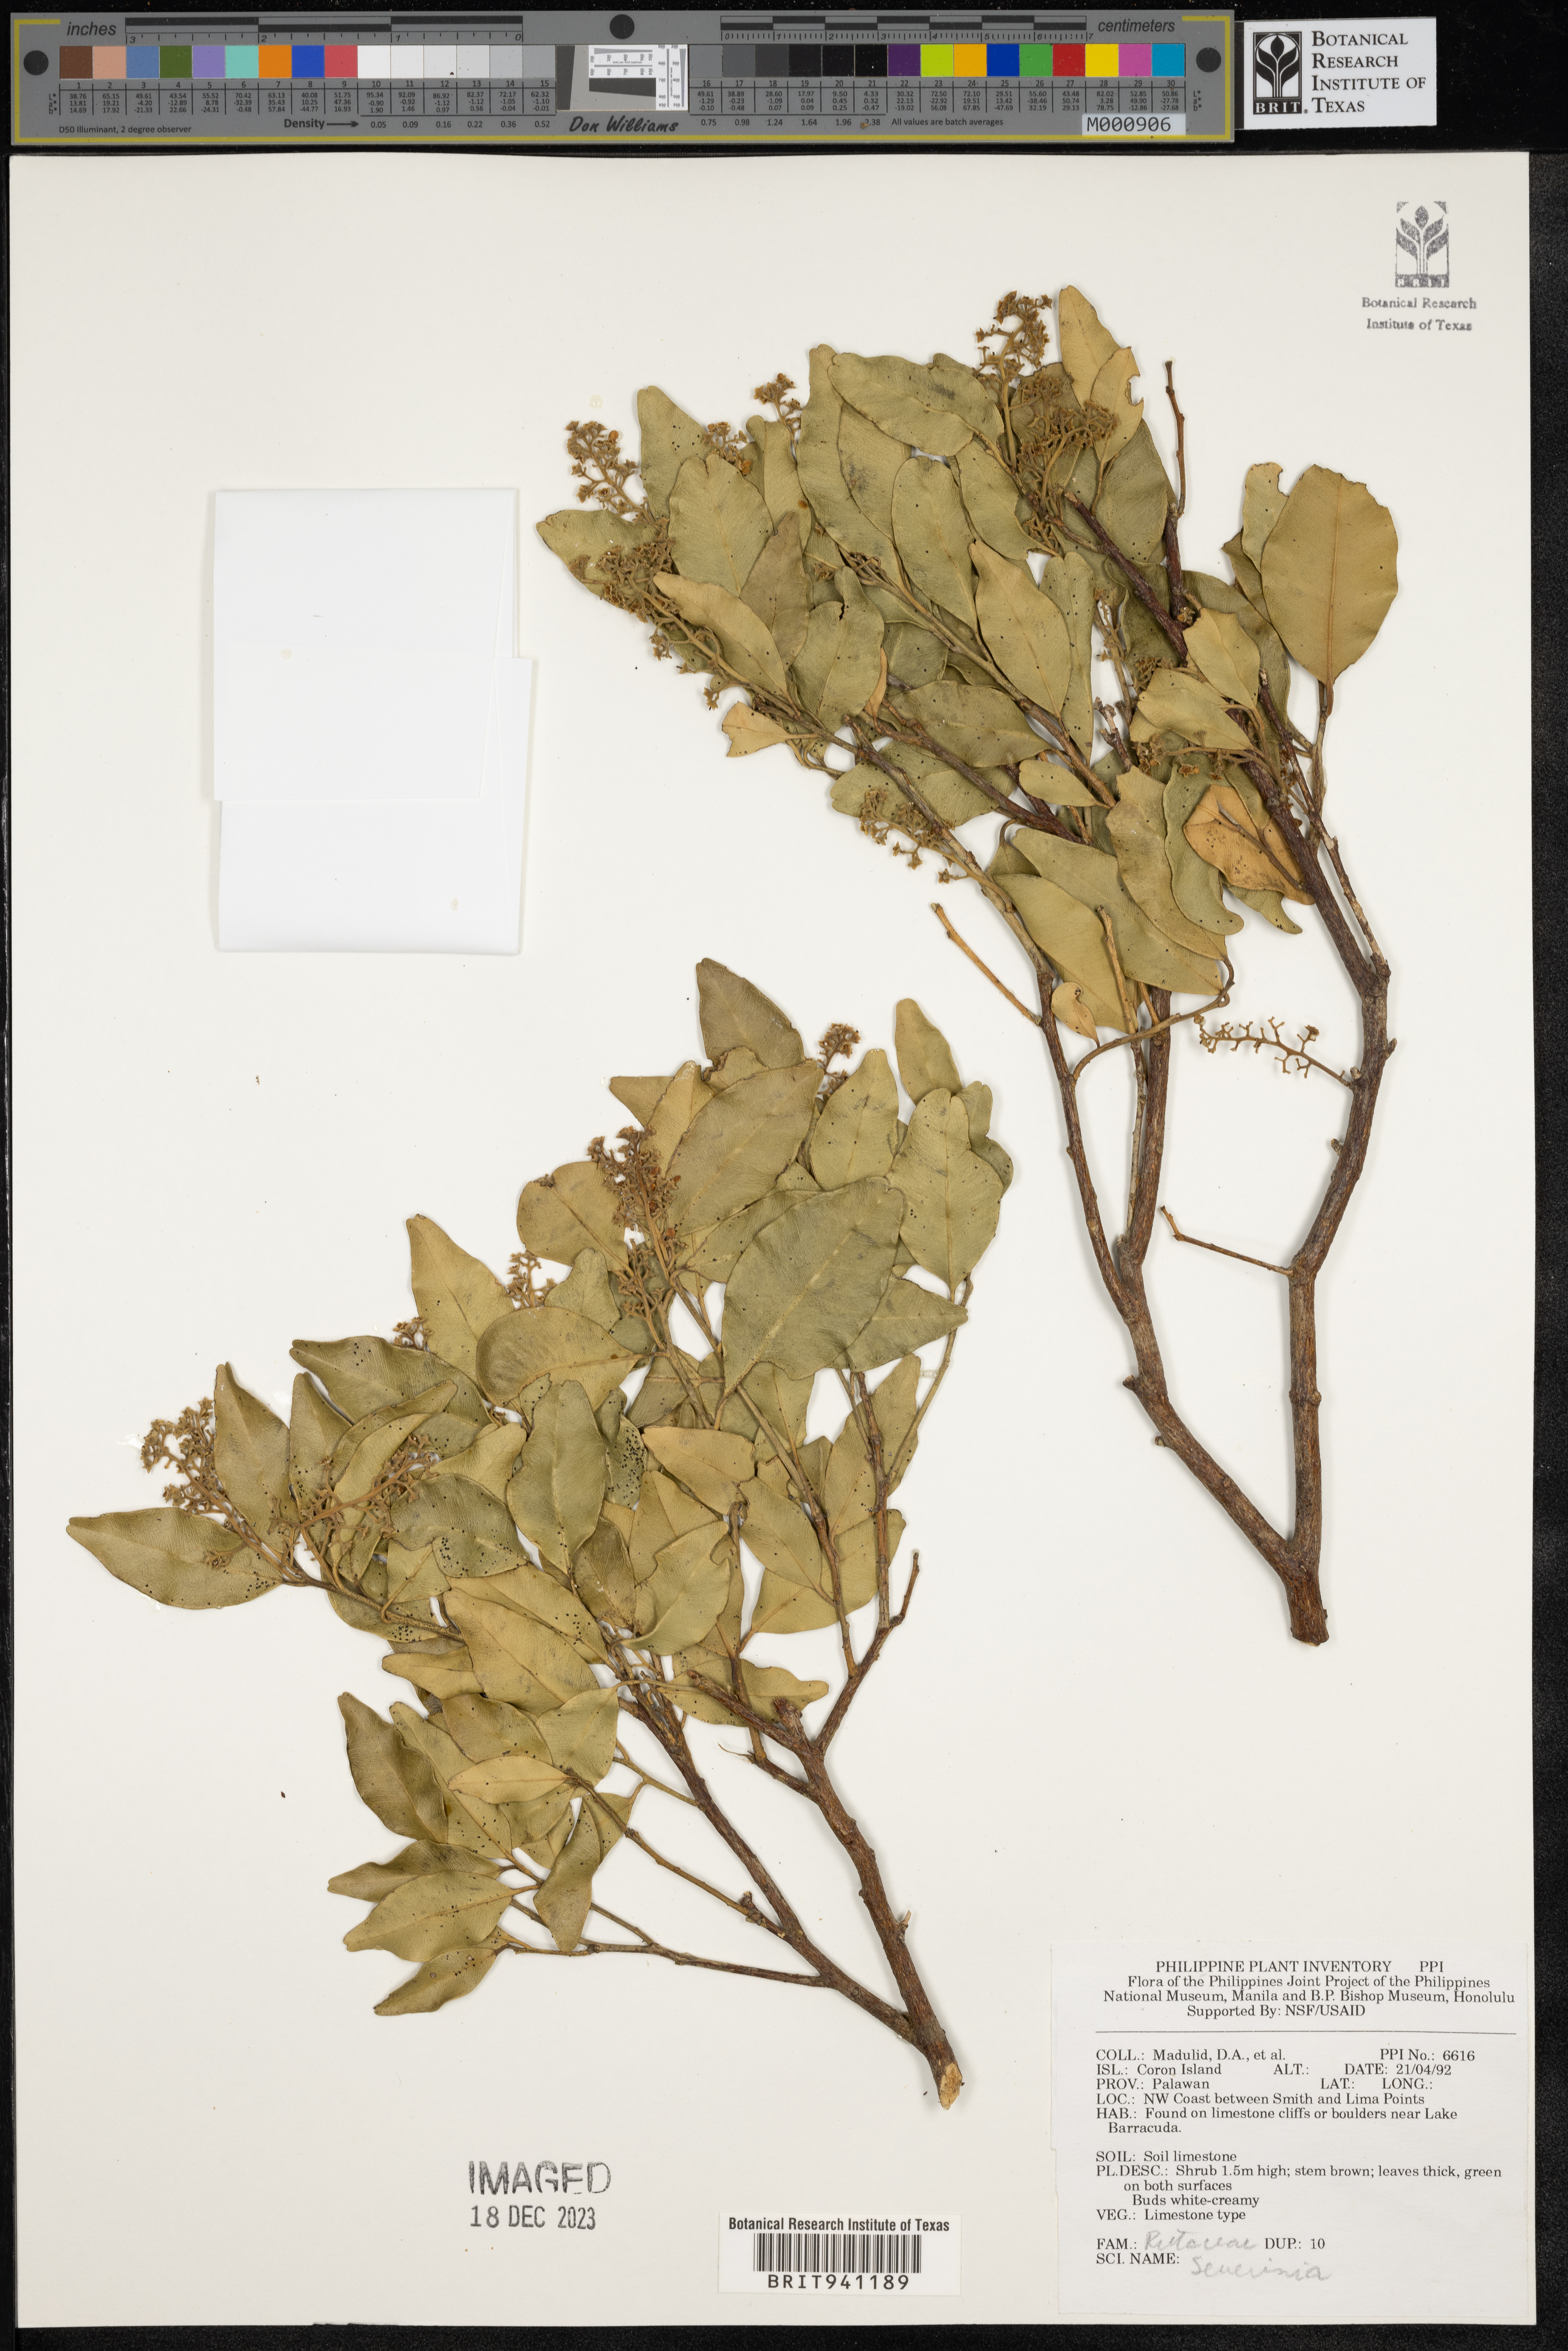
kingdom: Animalia
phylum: Arthropoda
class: Insecta
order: Mantodea
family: Toxoderidae
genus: Severinia
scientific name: Severinia
